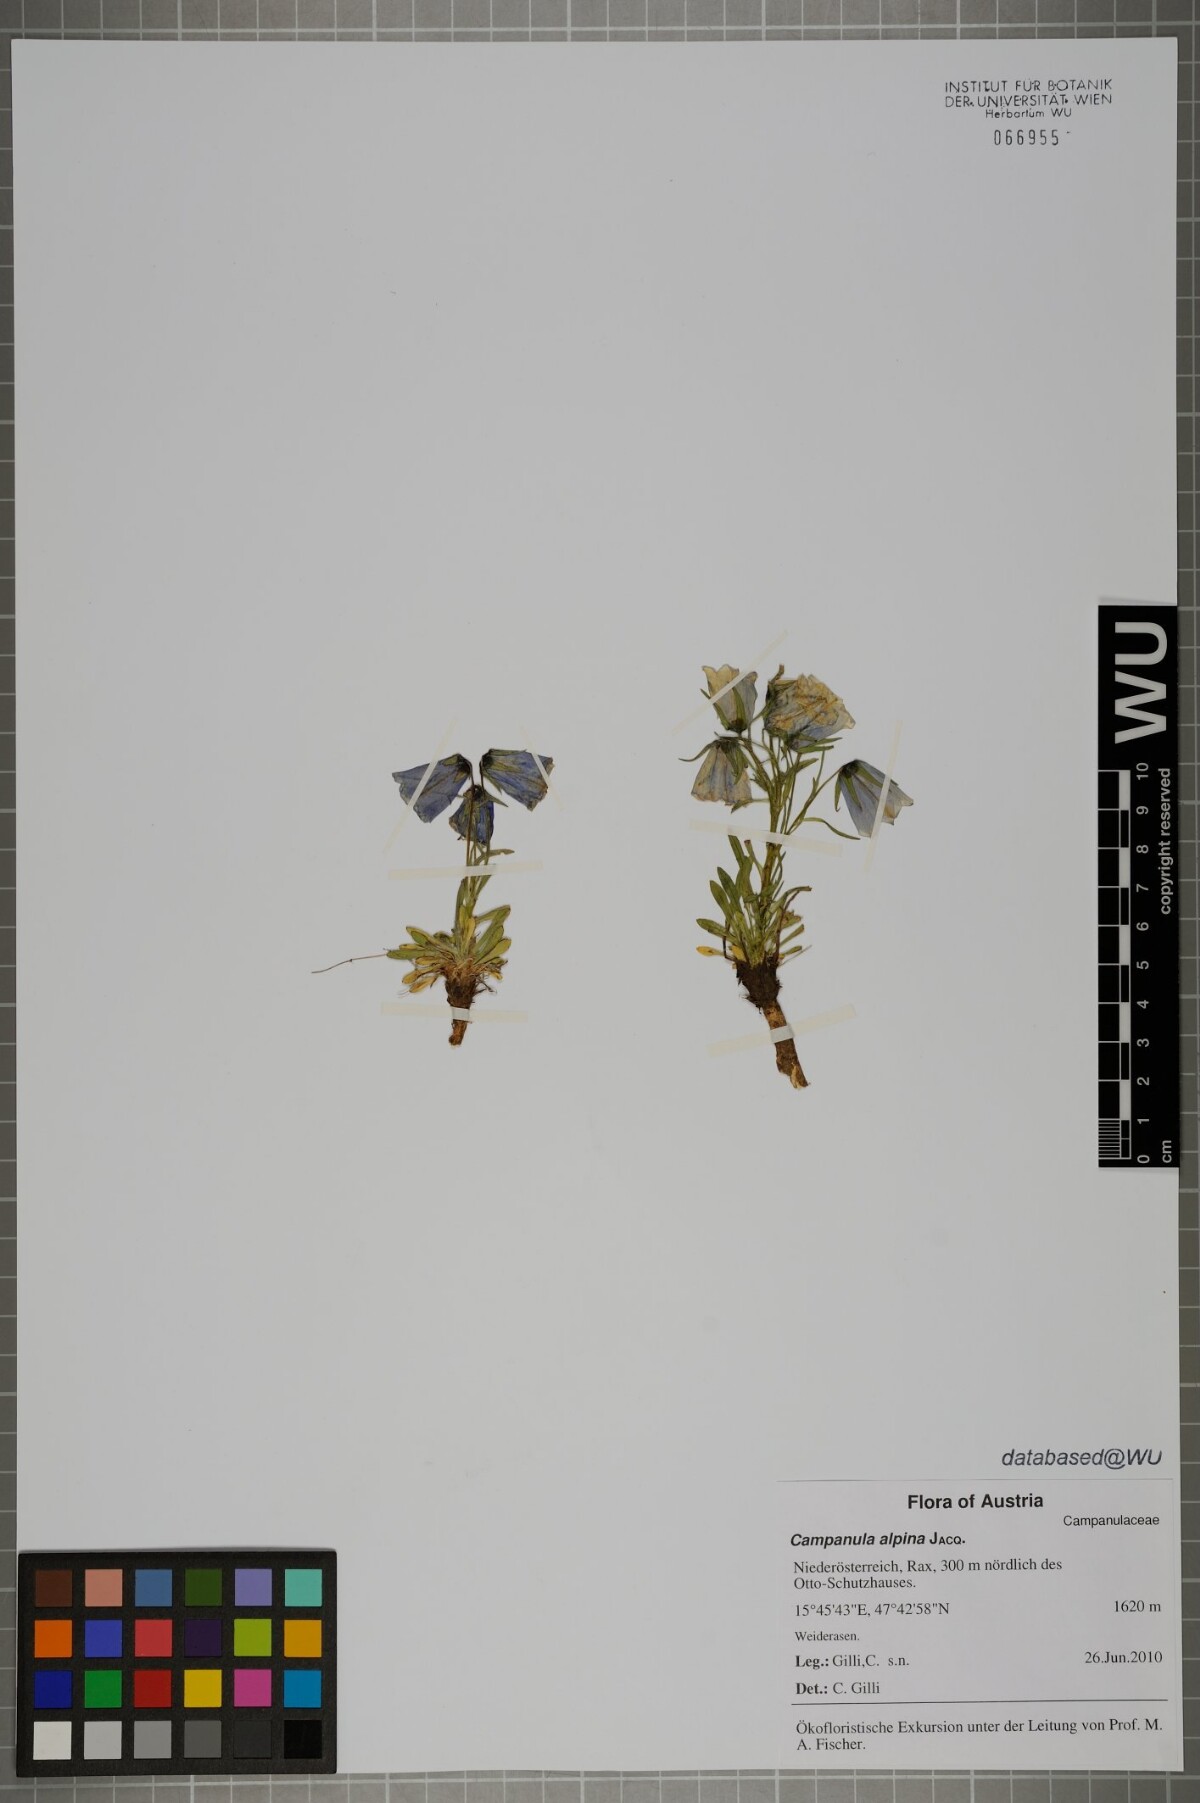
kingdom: Plantae
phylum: Tracheophyta
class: Magnoliopsida
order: Asterales
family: Campanulaceae
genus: Campanula
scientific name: Campanula alpina
